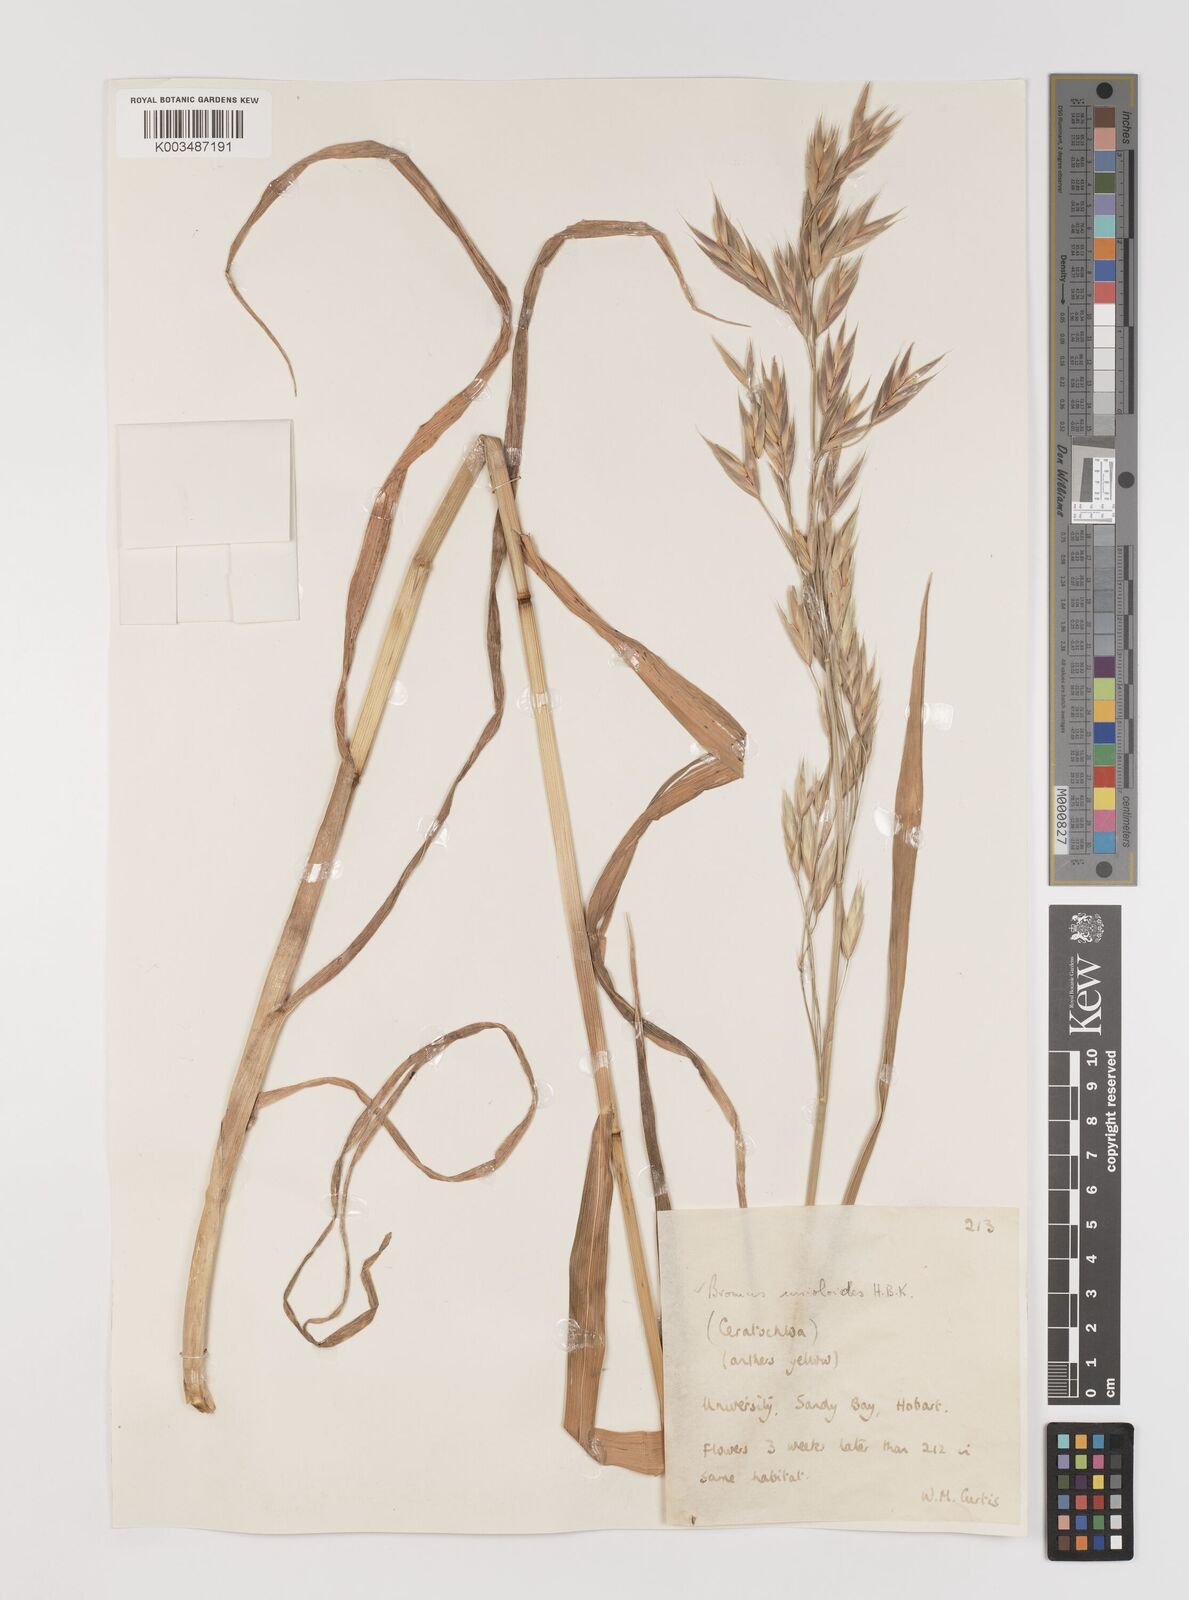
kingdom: Plantae
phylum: Tracheophyta
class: Liliopsida
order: Poales
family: Poaceae
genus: Bromus
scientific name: Bromus catharticus
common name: Rescuegrass
